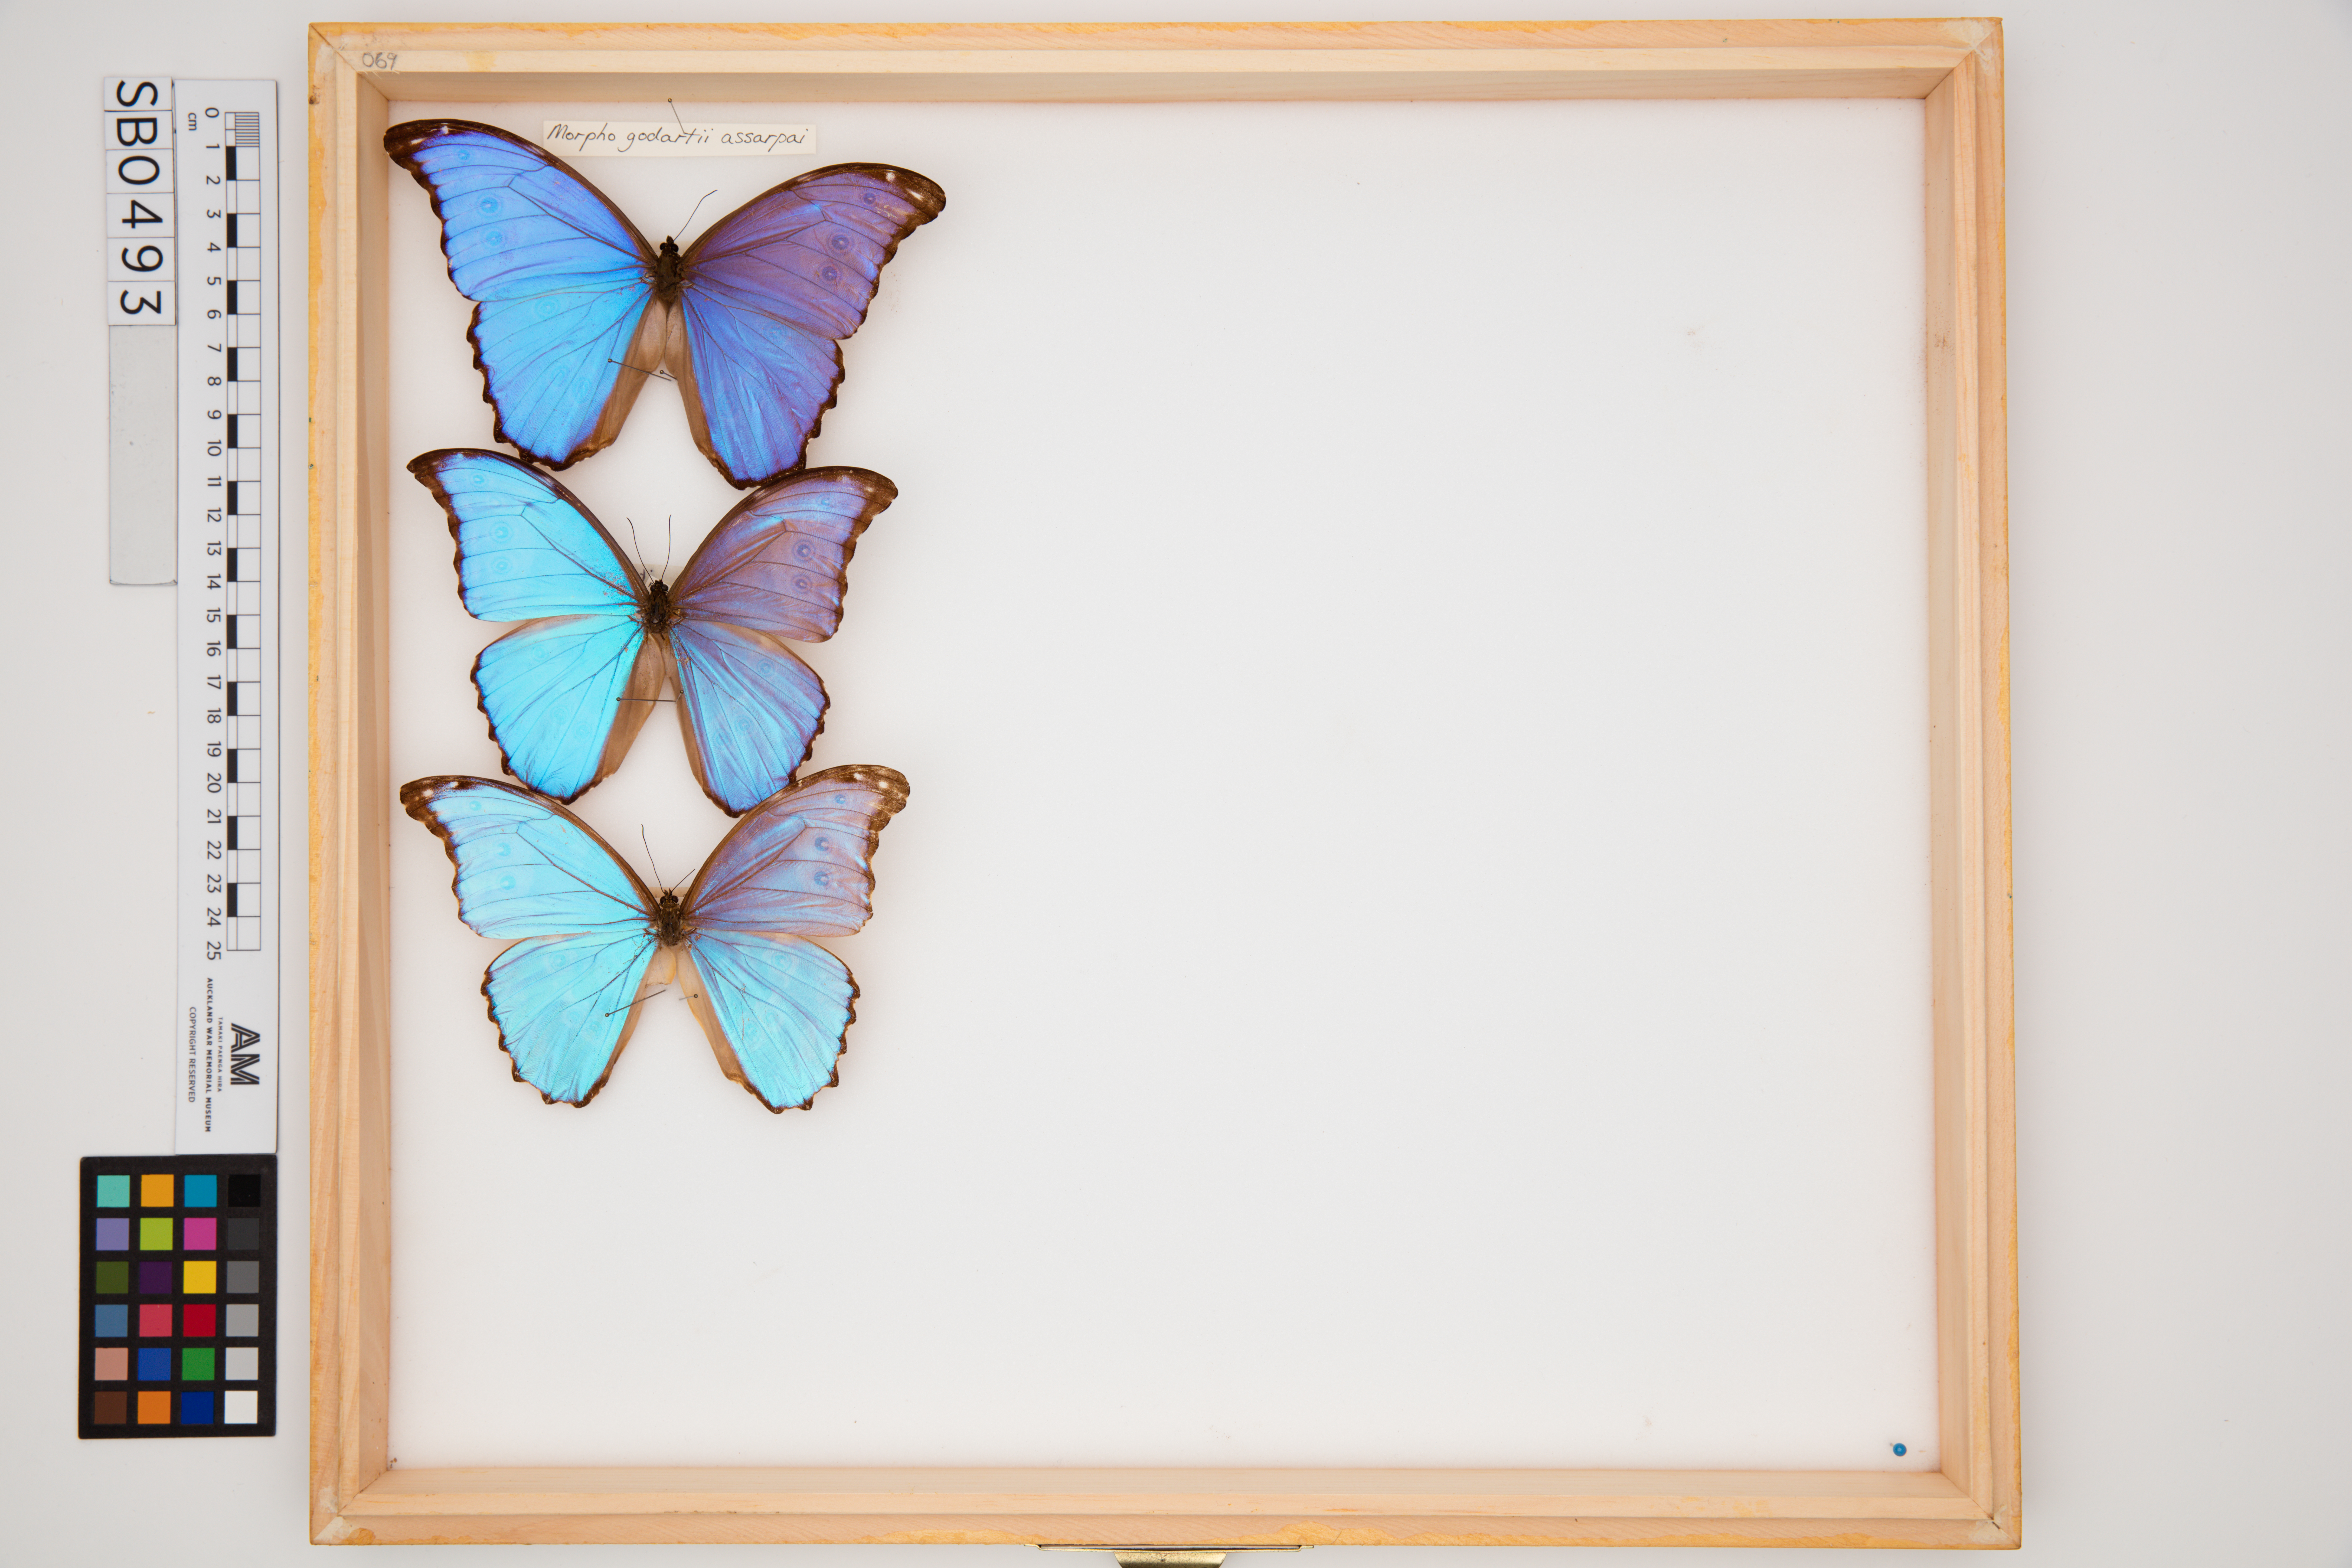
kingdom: Animalia
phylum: Arthropoda
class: Insecta
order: Lepidoptera
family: Nymphalidae
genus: Morpho
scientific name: Morpho godartii
